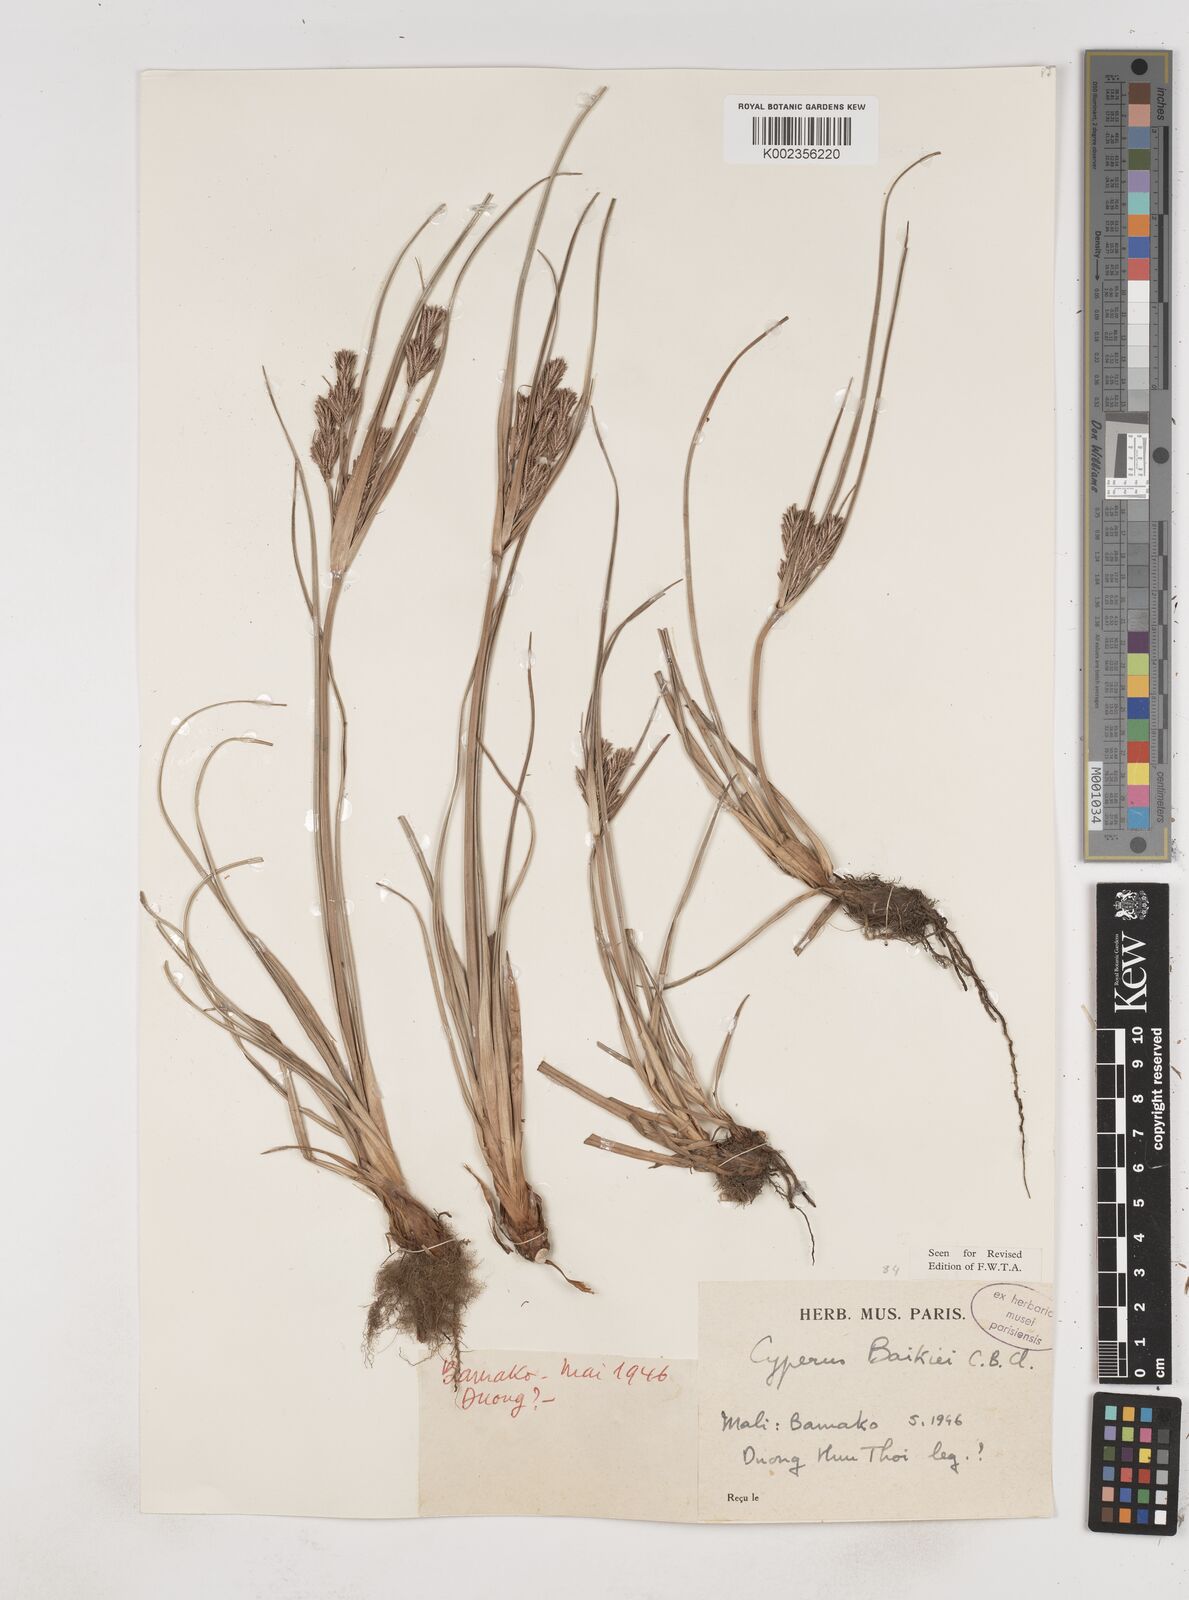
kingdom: Plantae
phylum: Tracheophyta
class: Liliopsida
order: Poales
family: Cyperaceae
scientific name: Cyperaceae
